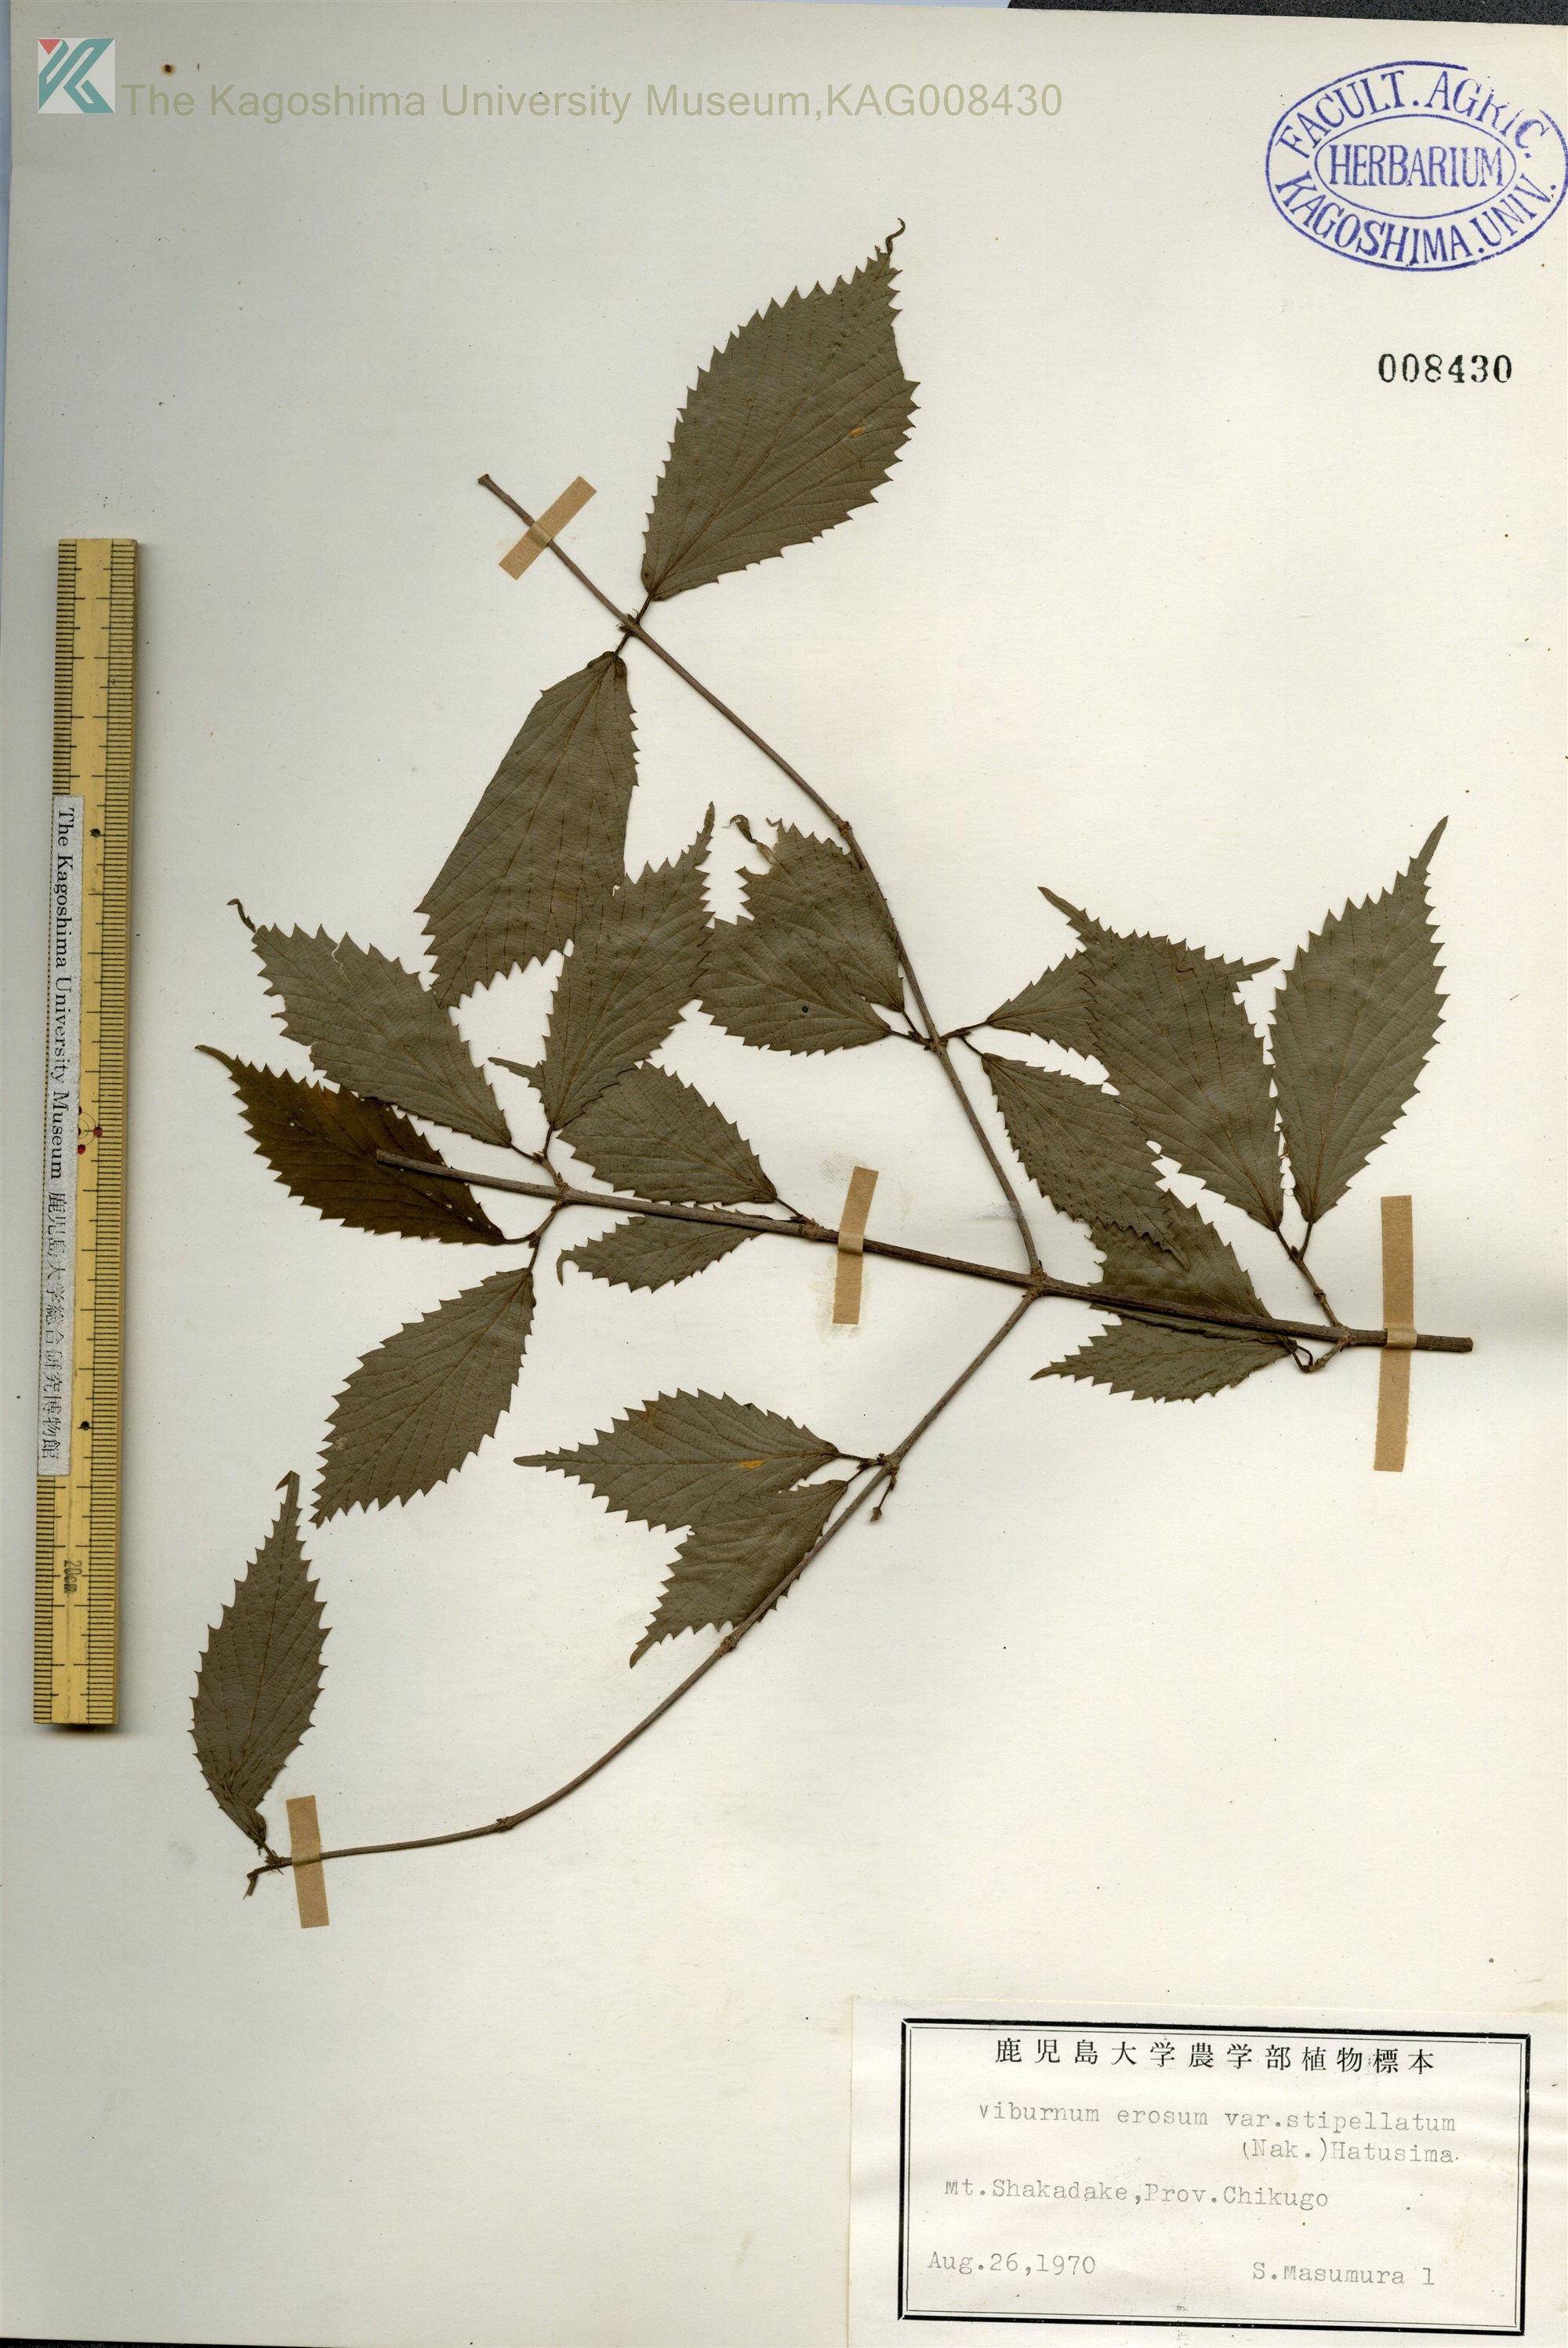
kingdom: Plantae
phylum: Tracheophyta
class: Magnoliopsida
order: Dipsacales
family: Viburnaceae
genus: Viburnum
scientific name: Viburnum erosum
